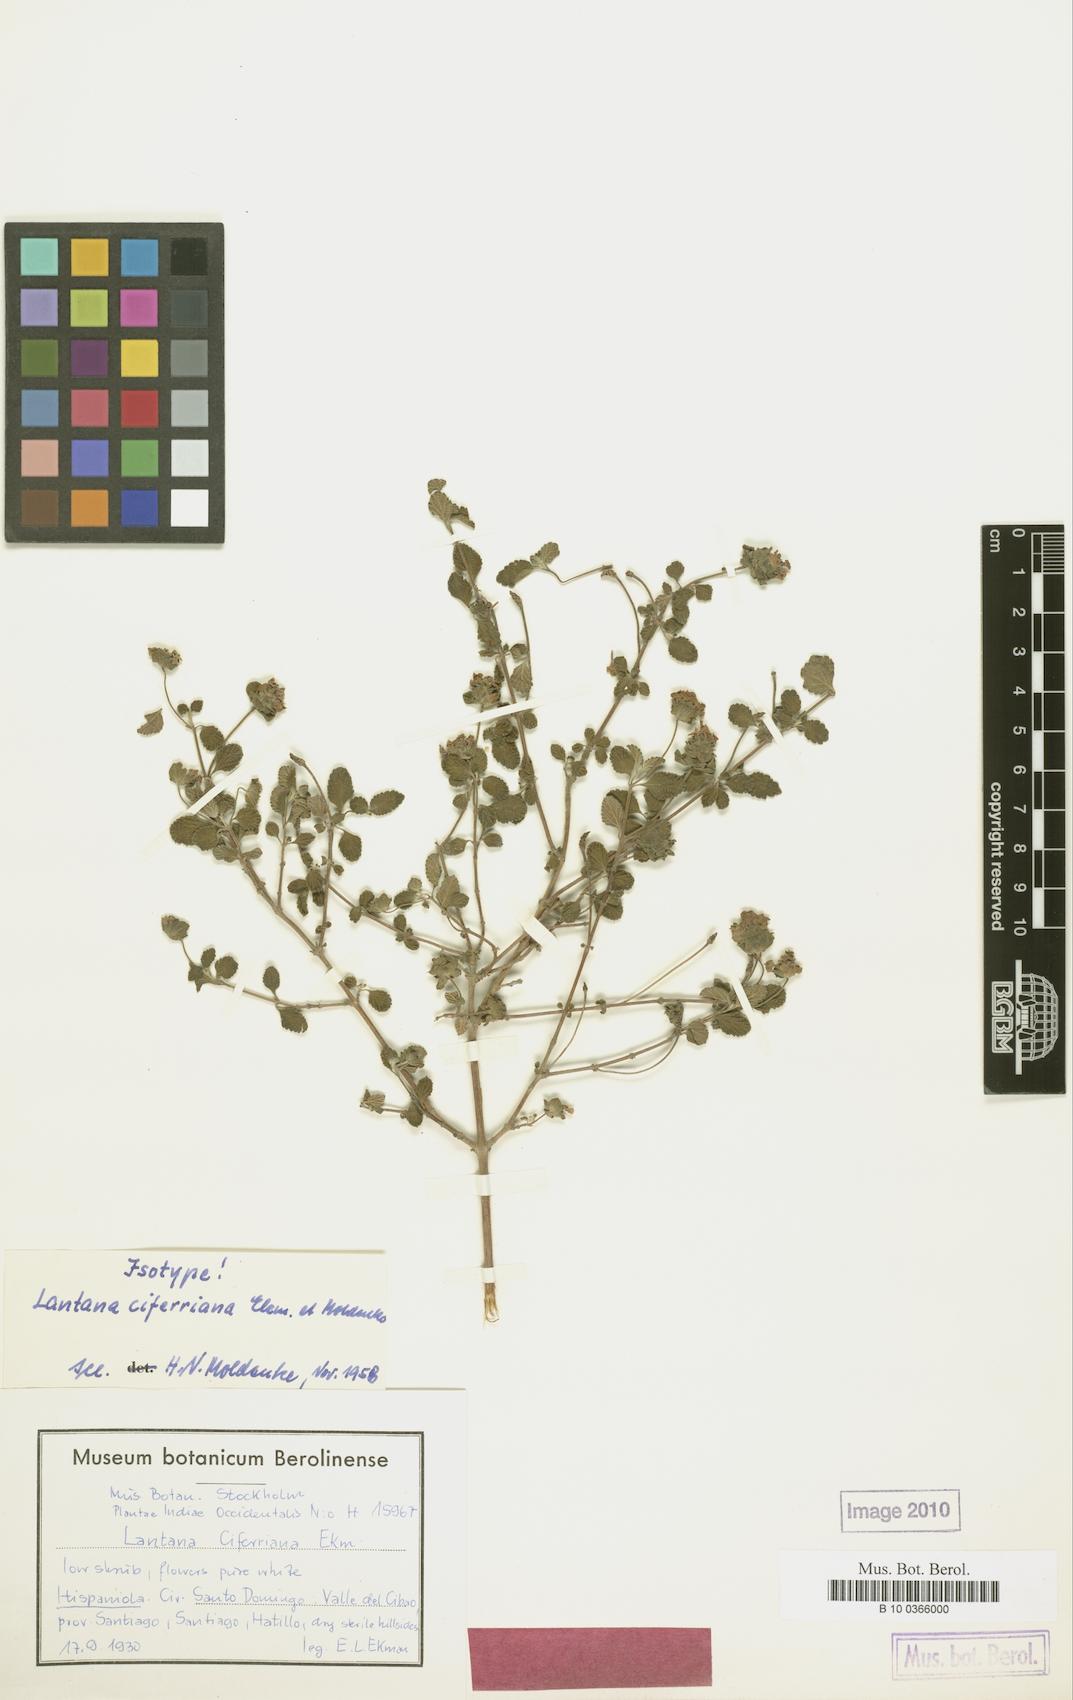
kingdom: Plantae
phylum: Tracheophyta
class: Magnoliopsida
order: Lamiales
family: Verbenaceae
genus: Lantana
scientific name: Lantana
